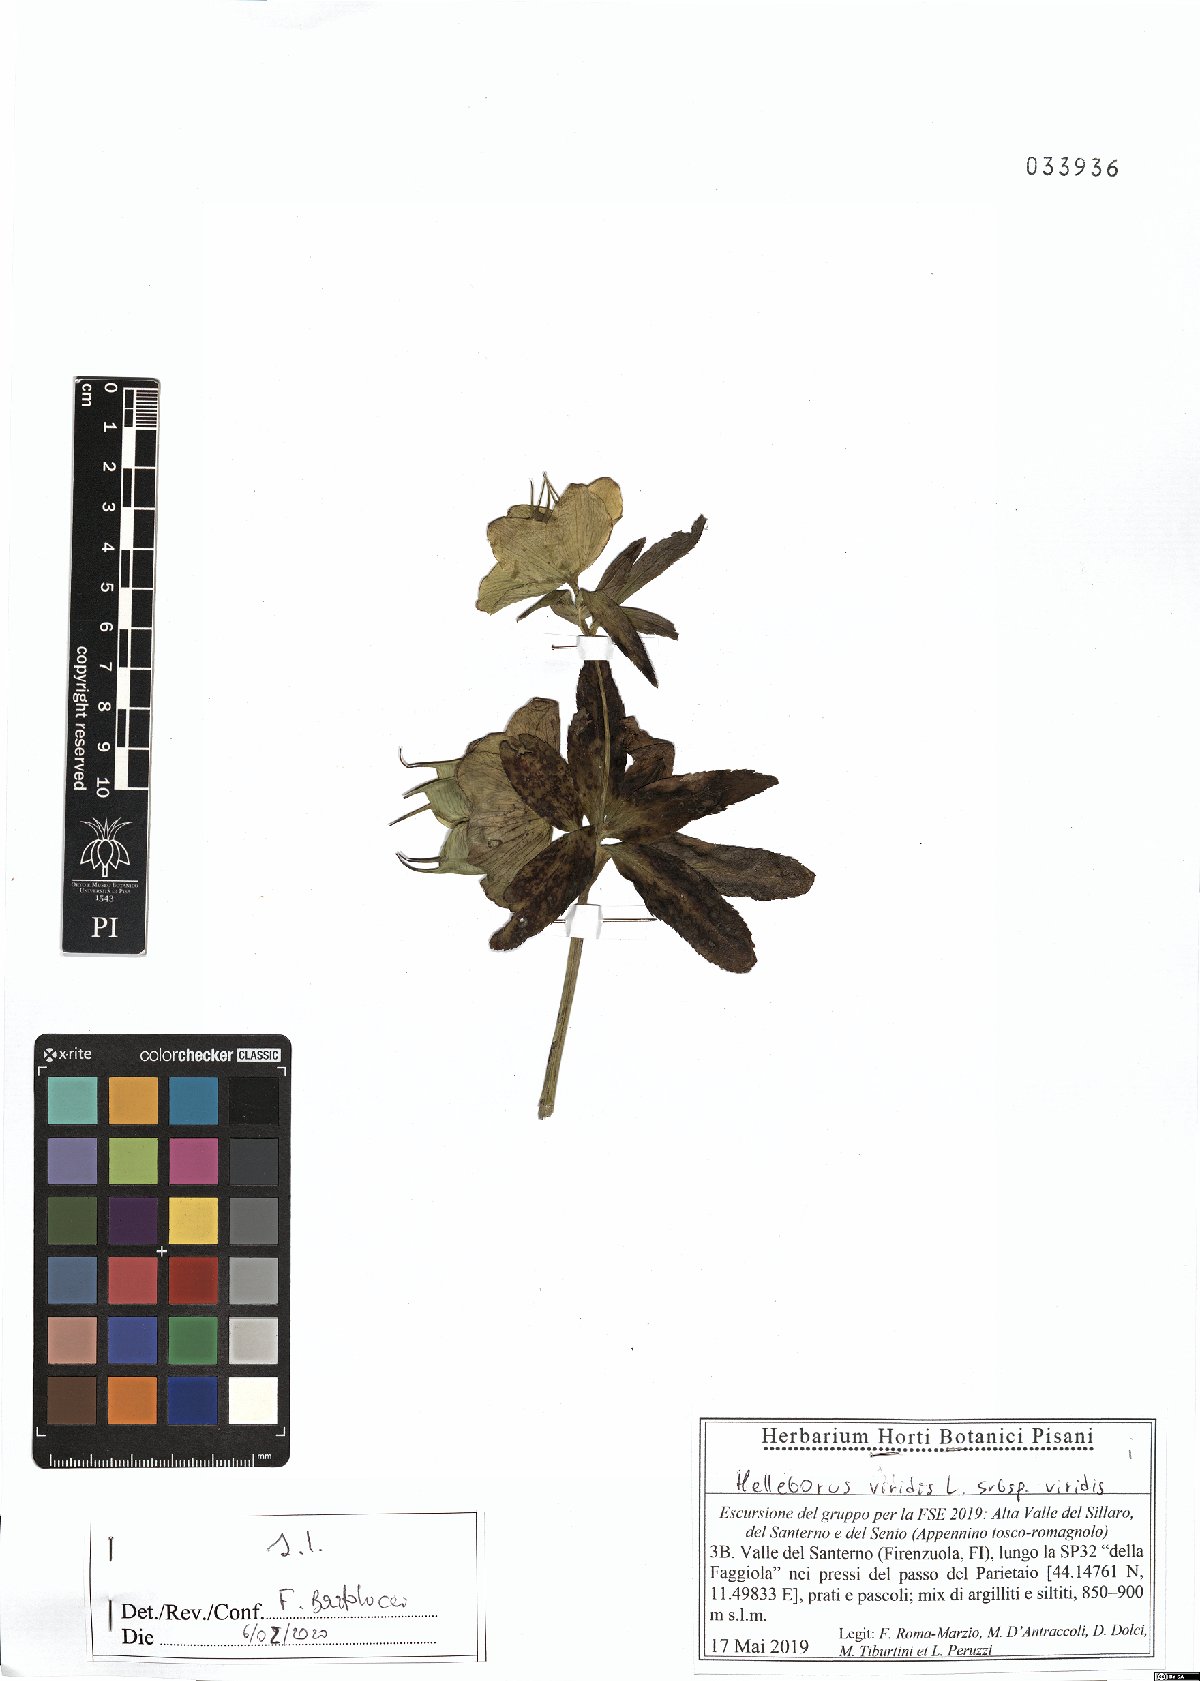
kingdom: Plantae
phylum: Tracheophyta
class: Magnoliopsida
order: Ranunculales
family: Ranunculaceae
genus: Helleborus
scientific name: Helleborus viridis
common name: Green hellebore
